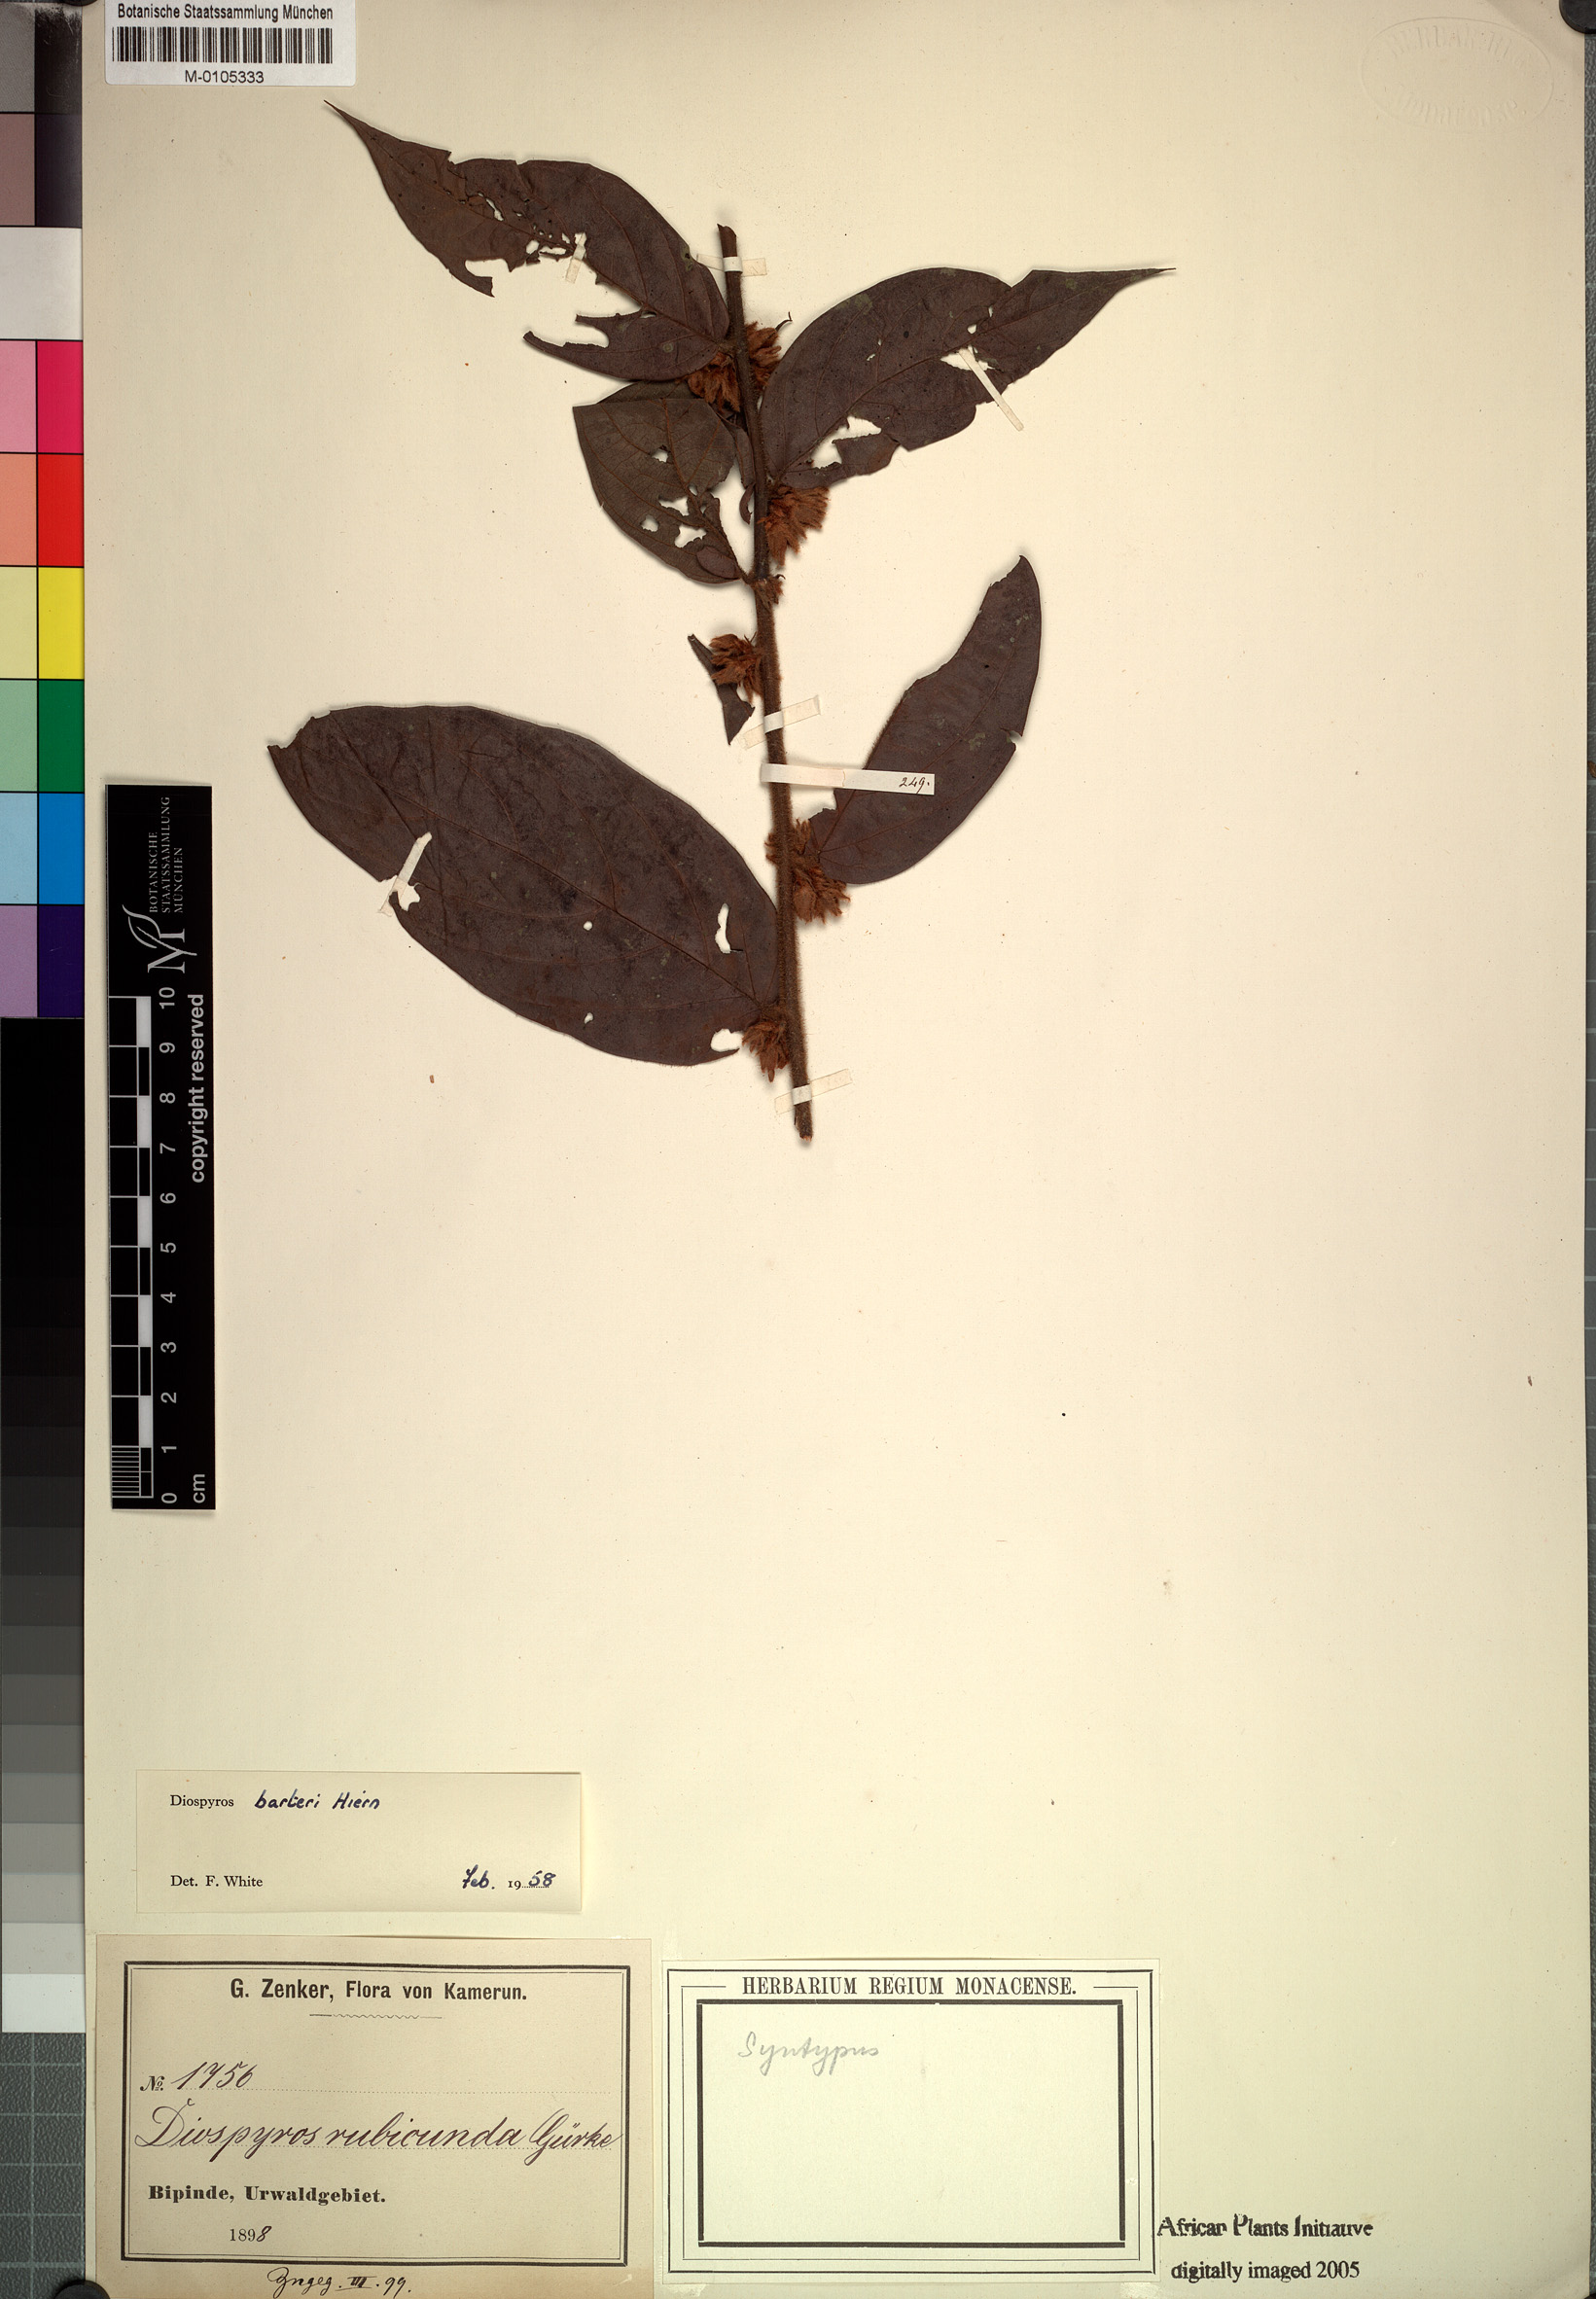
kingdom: Plantae
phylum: Tracheophyta
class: Magnoliopsida
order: Ericales
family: Ebenaceae
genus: Diospyros
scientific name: Diospyros barteri
